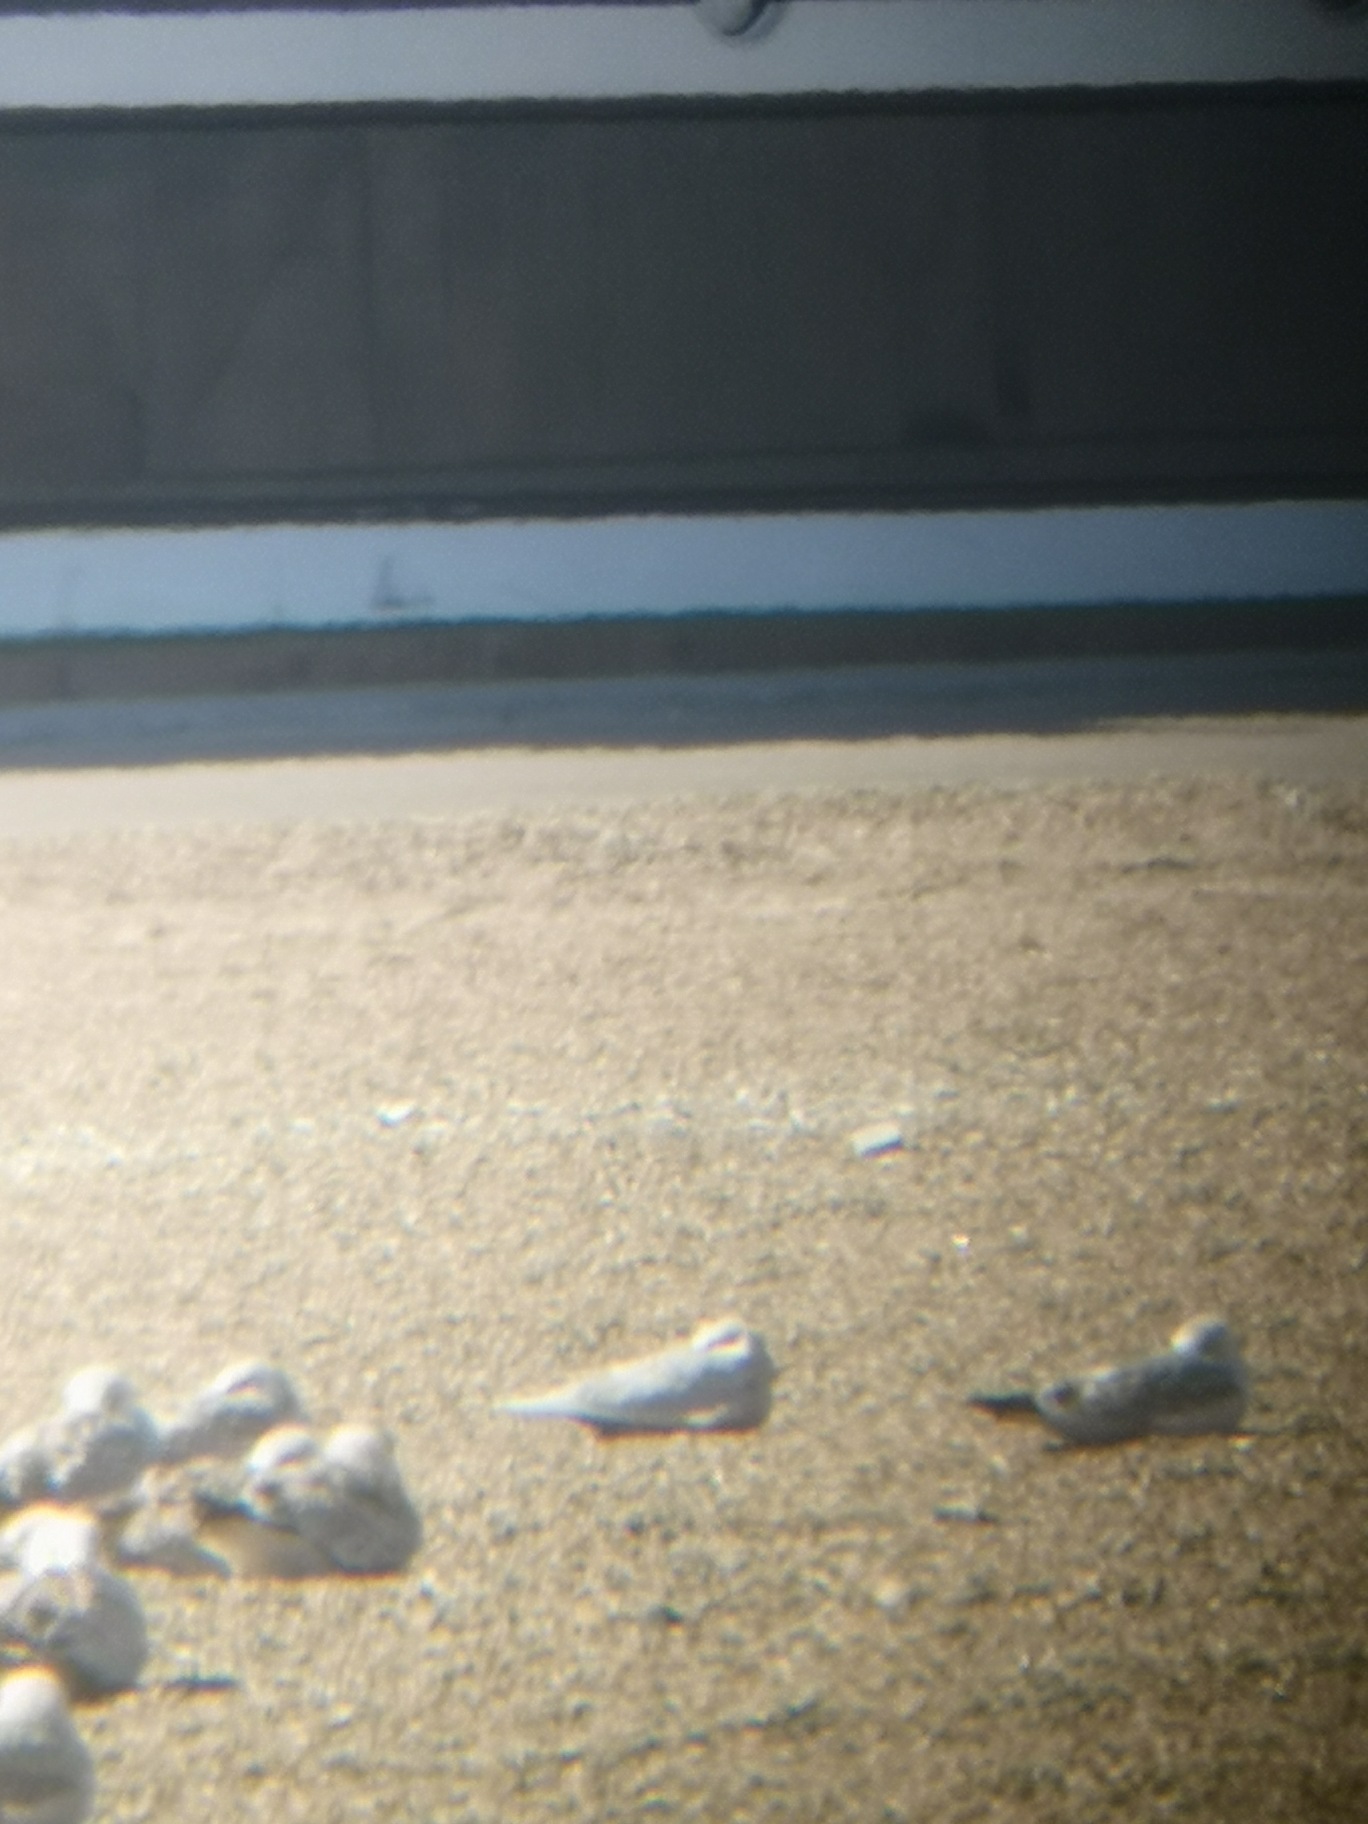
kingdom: Animalia
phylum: Chordata
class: Aves
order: Charadriiformes
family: Laridae
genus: Larus
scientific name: Larus glaucoides
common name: Hvidvinget måge
